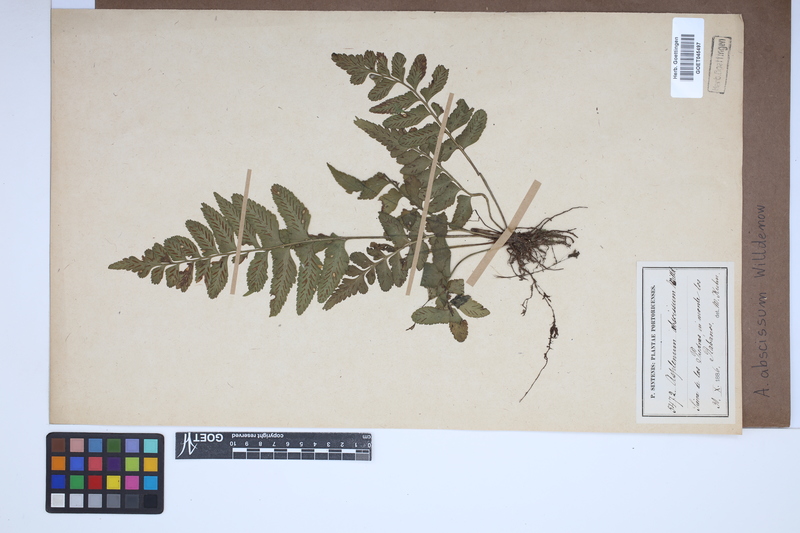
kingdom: Plantae
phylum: Tracheophyta
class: Polypodiopsida
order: Polypodiales
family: Aspleniaceae
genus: Asplenium
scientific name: Asplenium abscissum
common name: Cutleaf spleenwort
